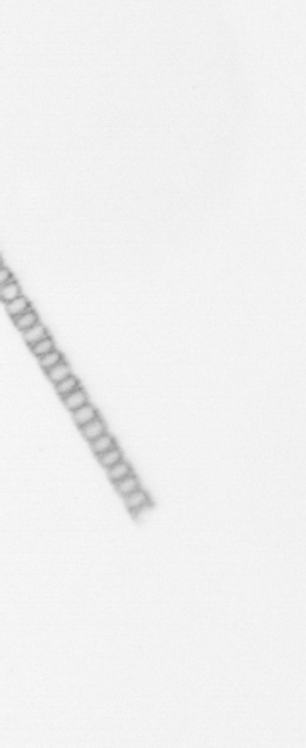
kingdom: Chromista
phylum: Ochrophyta
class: Bacillariophyceae
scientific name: Bacillariophyceae
